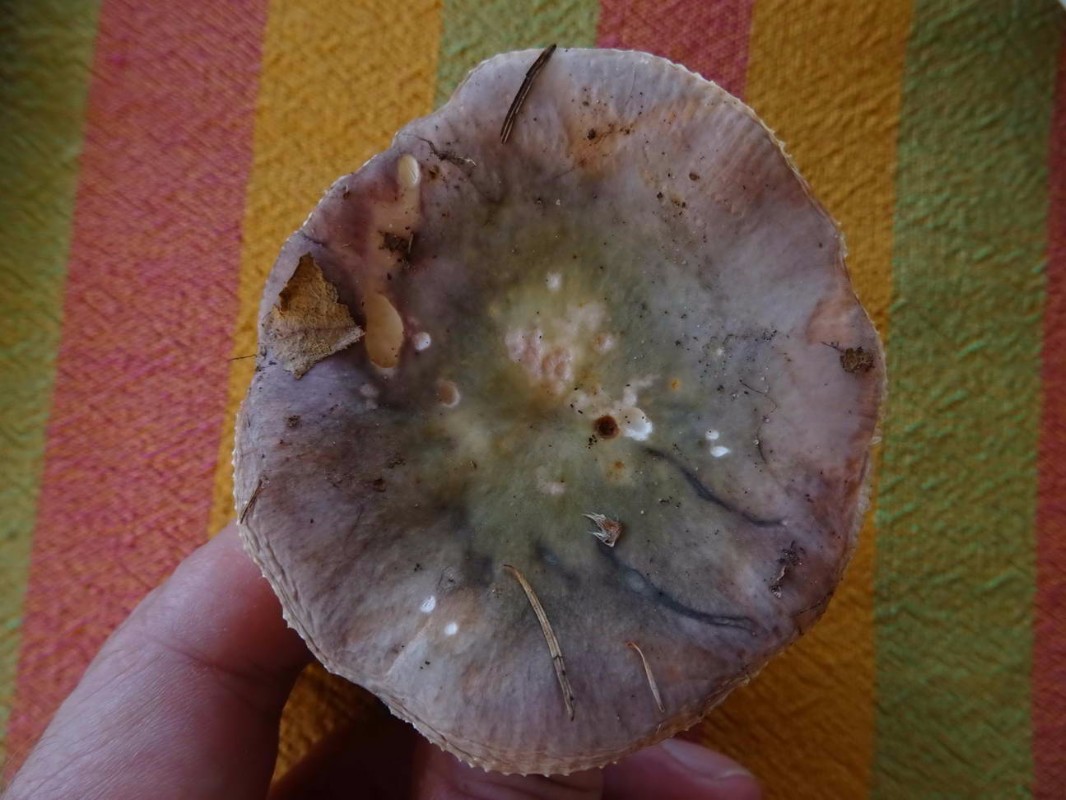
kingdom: Fungi
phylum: Basidiomycota
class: Agaricomycetes
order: Russulales
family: Russulaceae
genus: Russula
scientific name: Russula ionochlora
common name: violetgrøn skørhat
